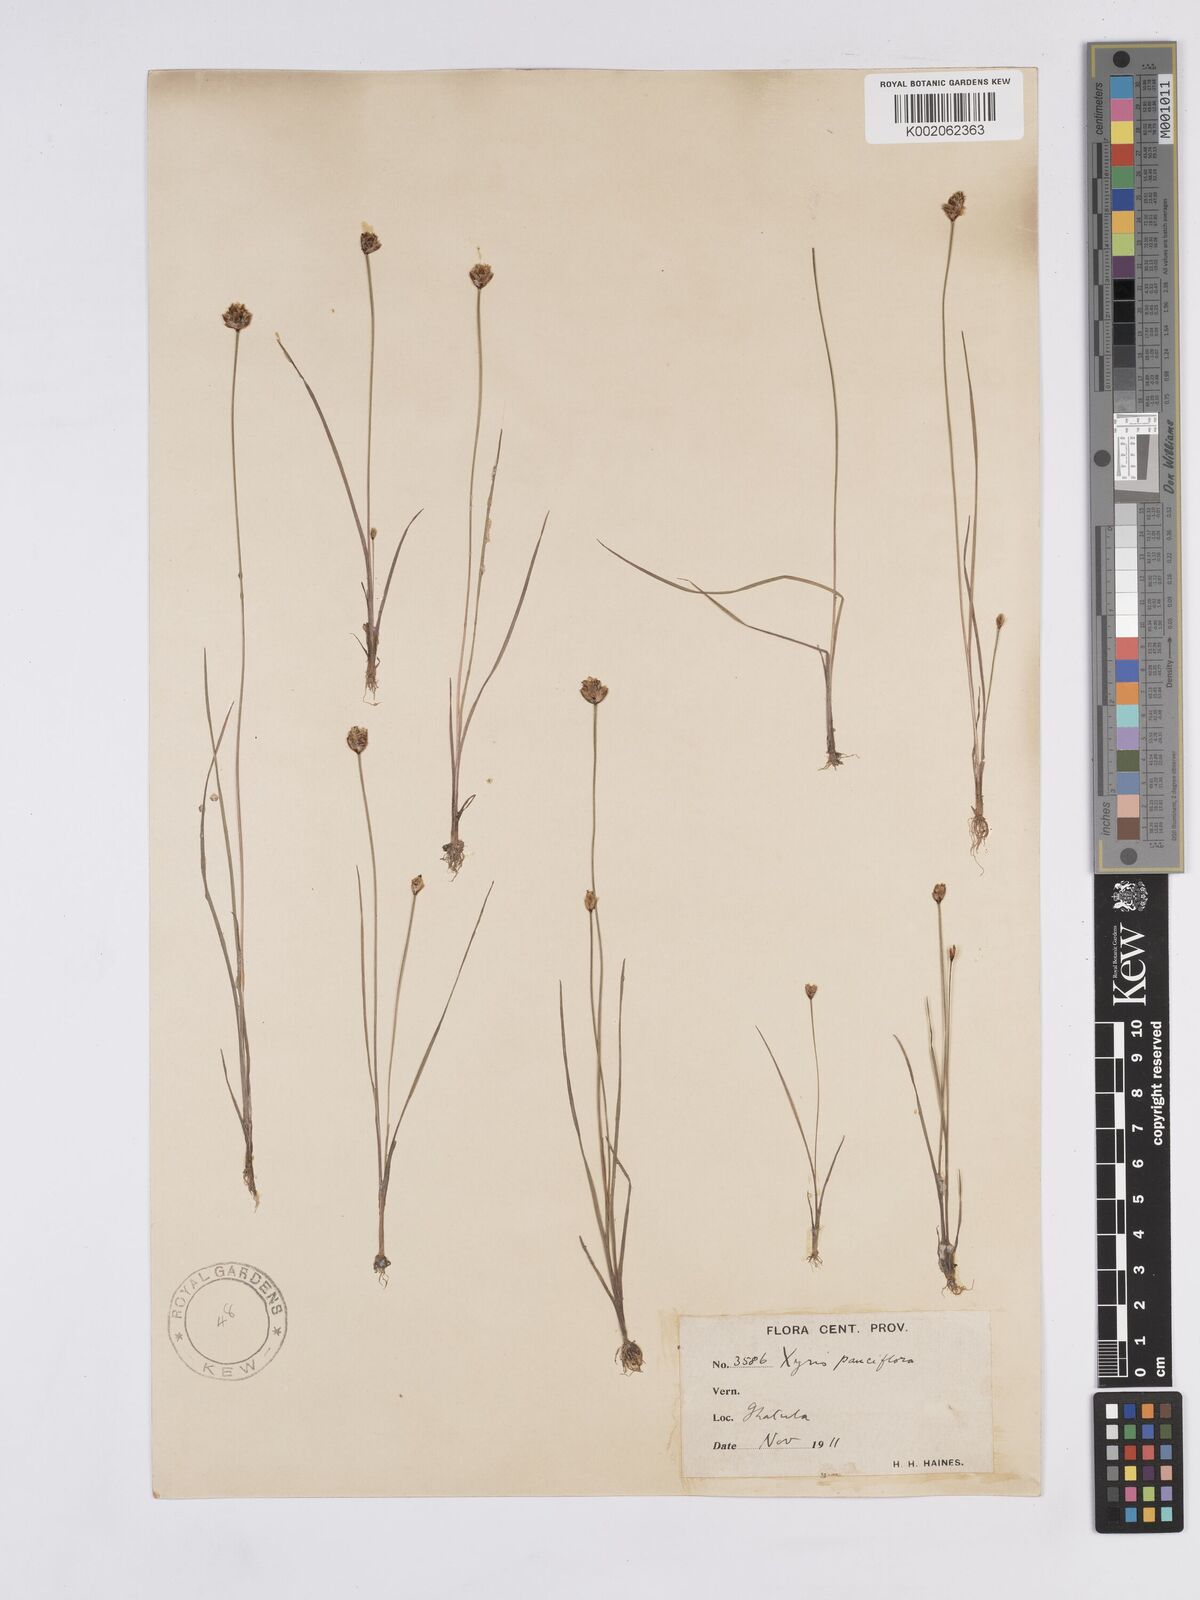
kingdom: Plantae
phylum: Tracheophyta
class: Liliopsida
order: Poales
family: Xyridaceae
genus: Xyris
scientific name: Xyris pauciflora
